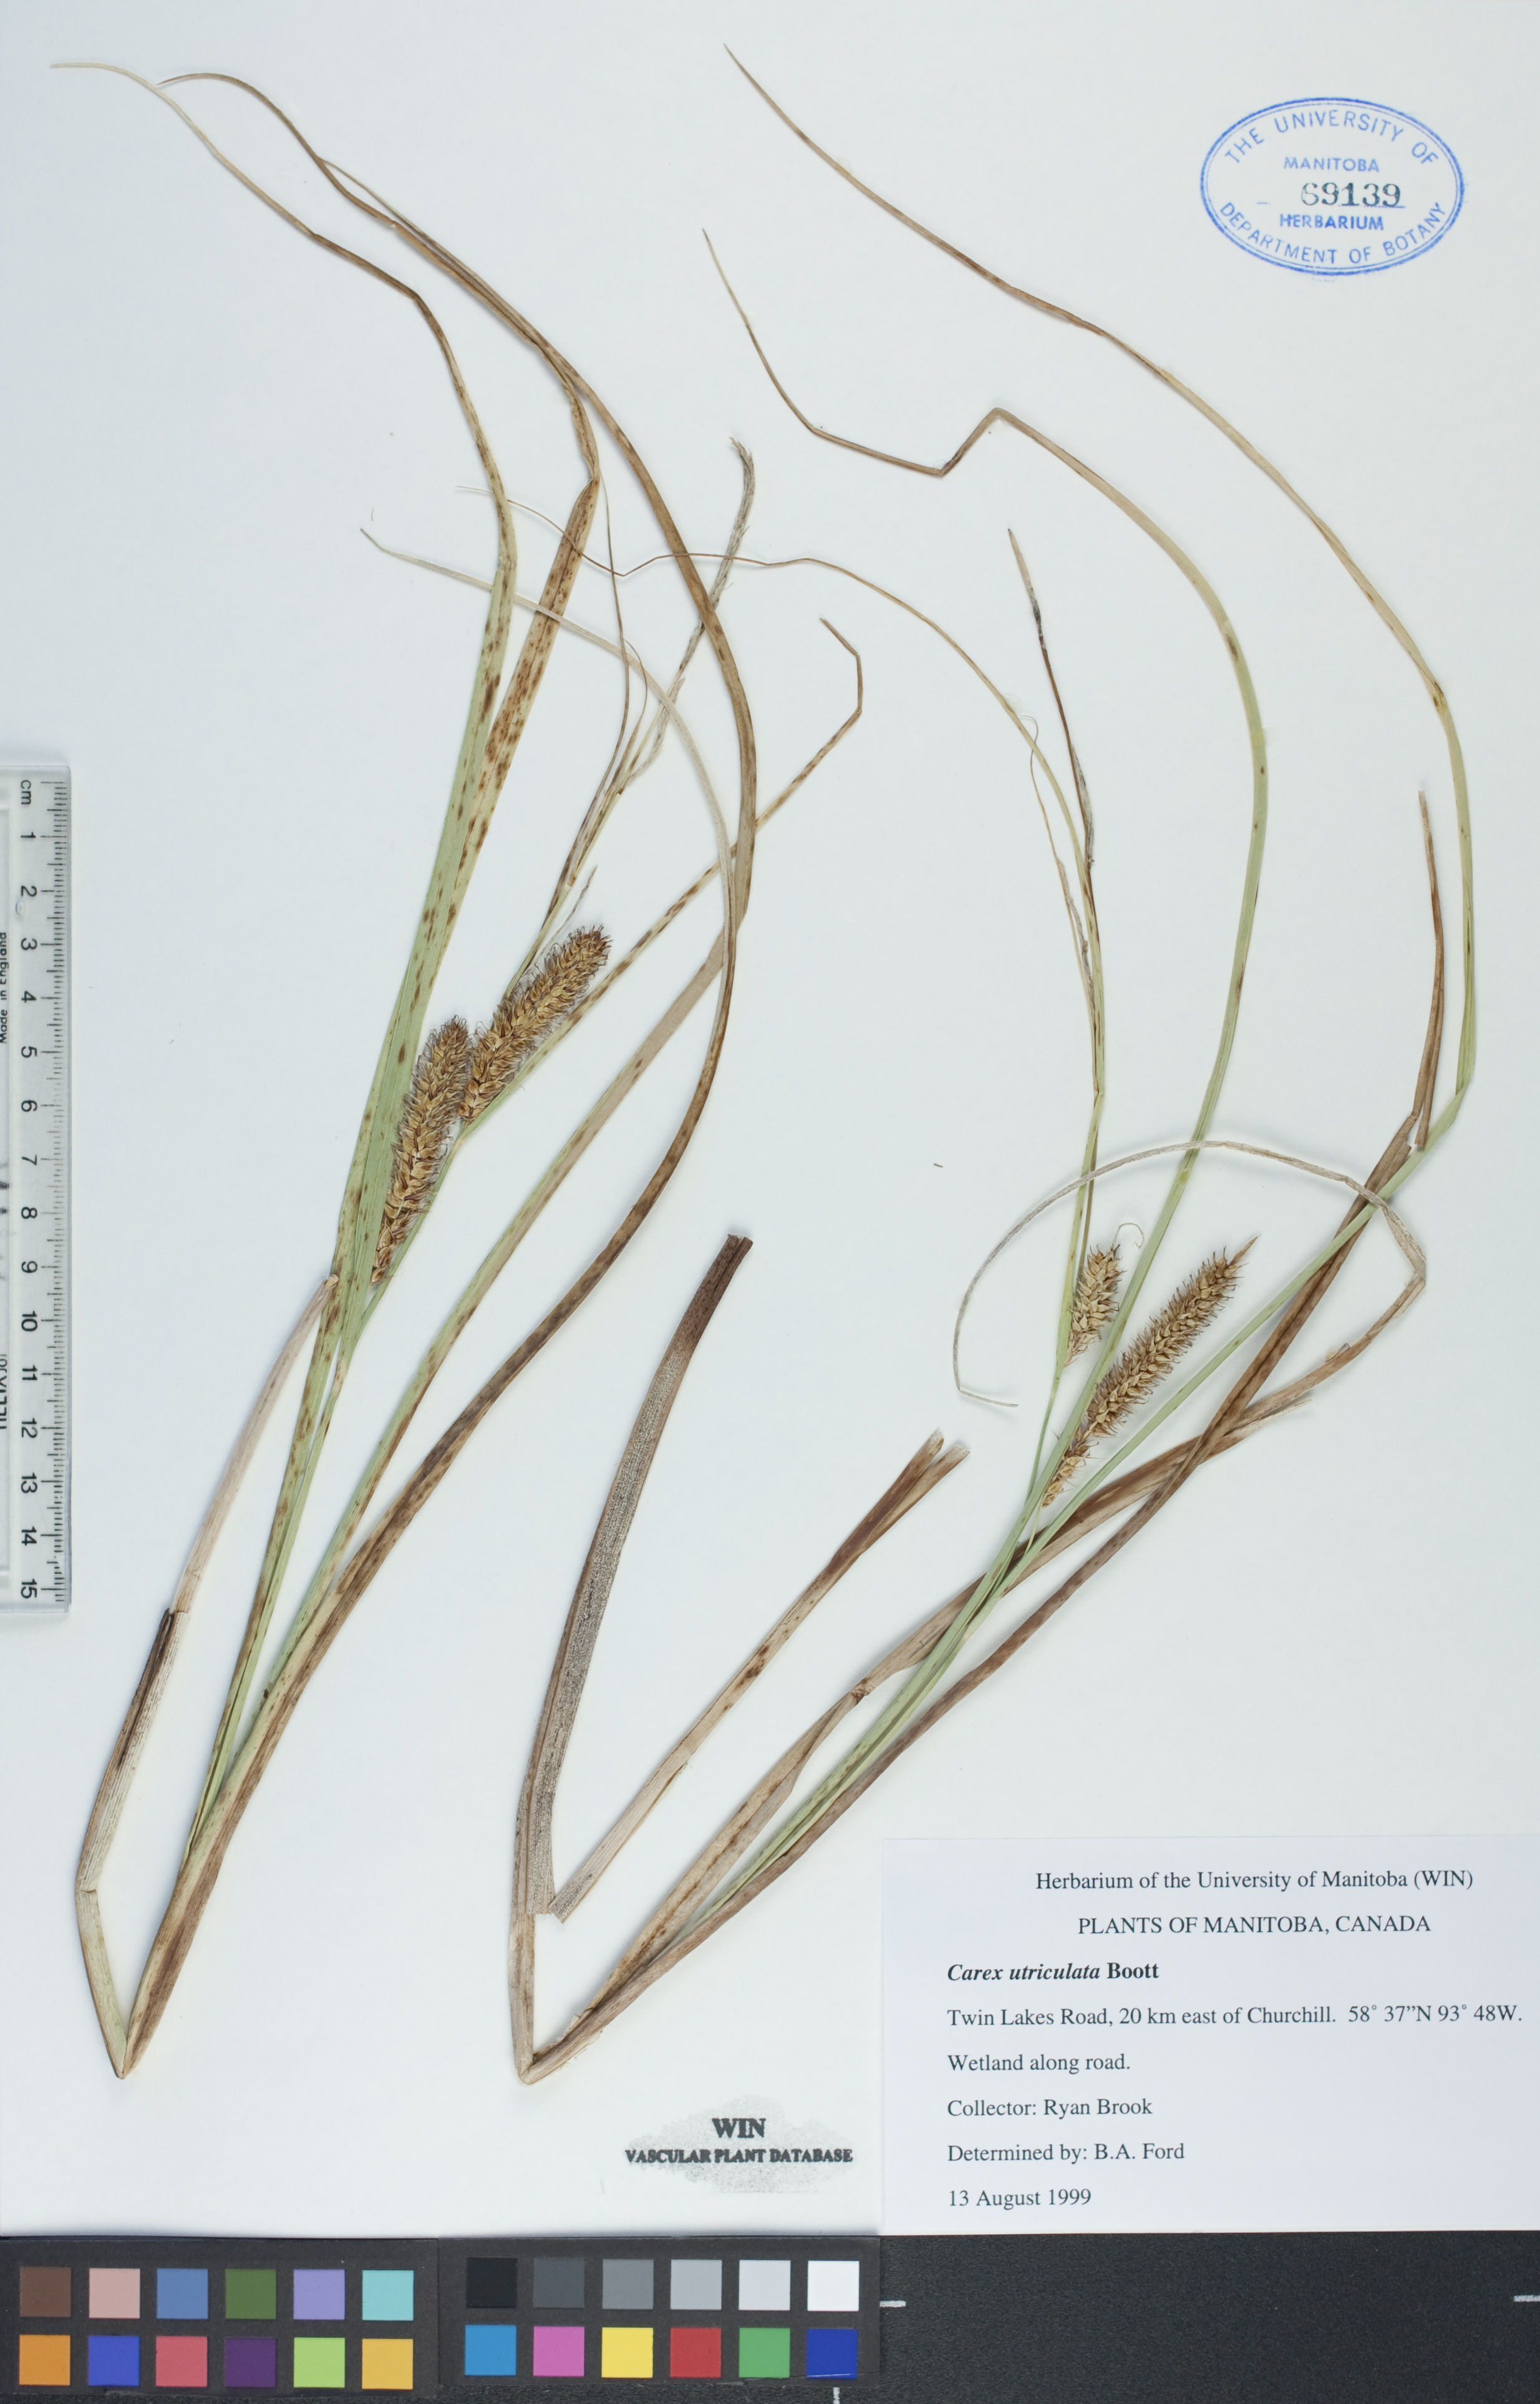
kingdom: Plantae
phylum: Tracheophyta
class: Liliopsida
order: Poales
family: Cyperaceae
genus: Carex
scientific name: Carex utriculata
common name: Beaked sedge
